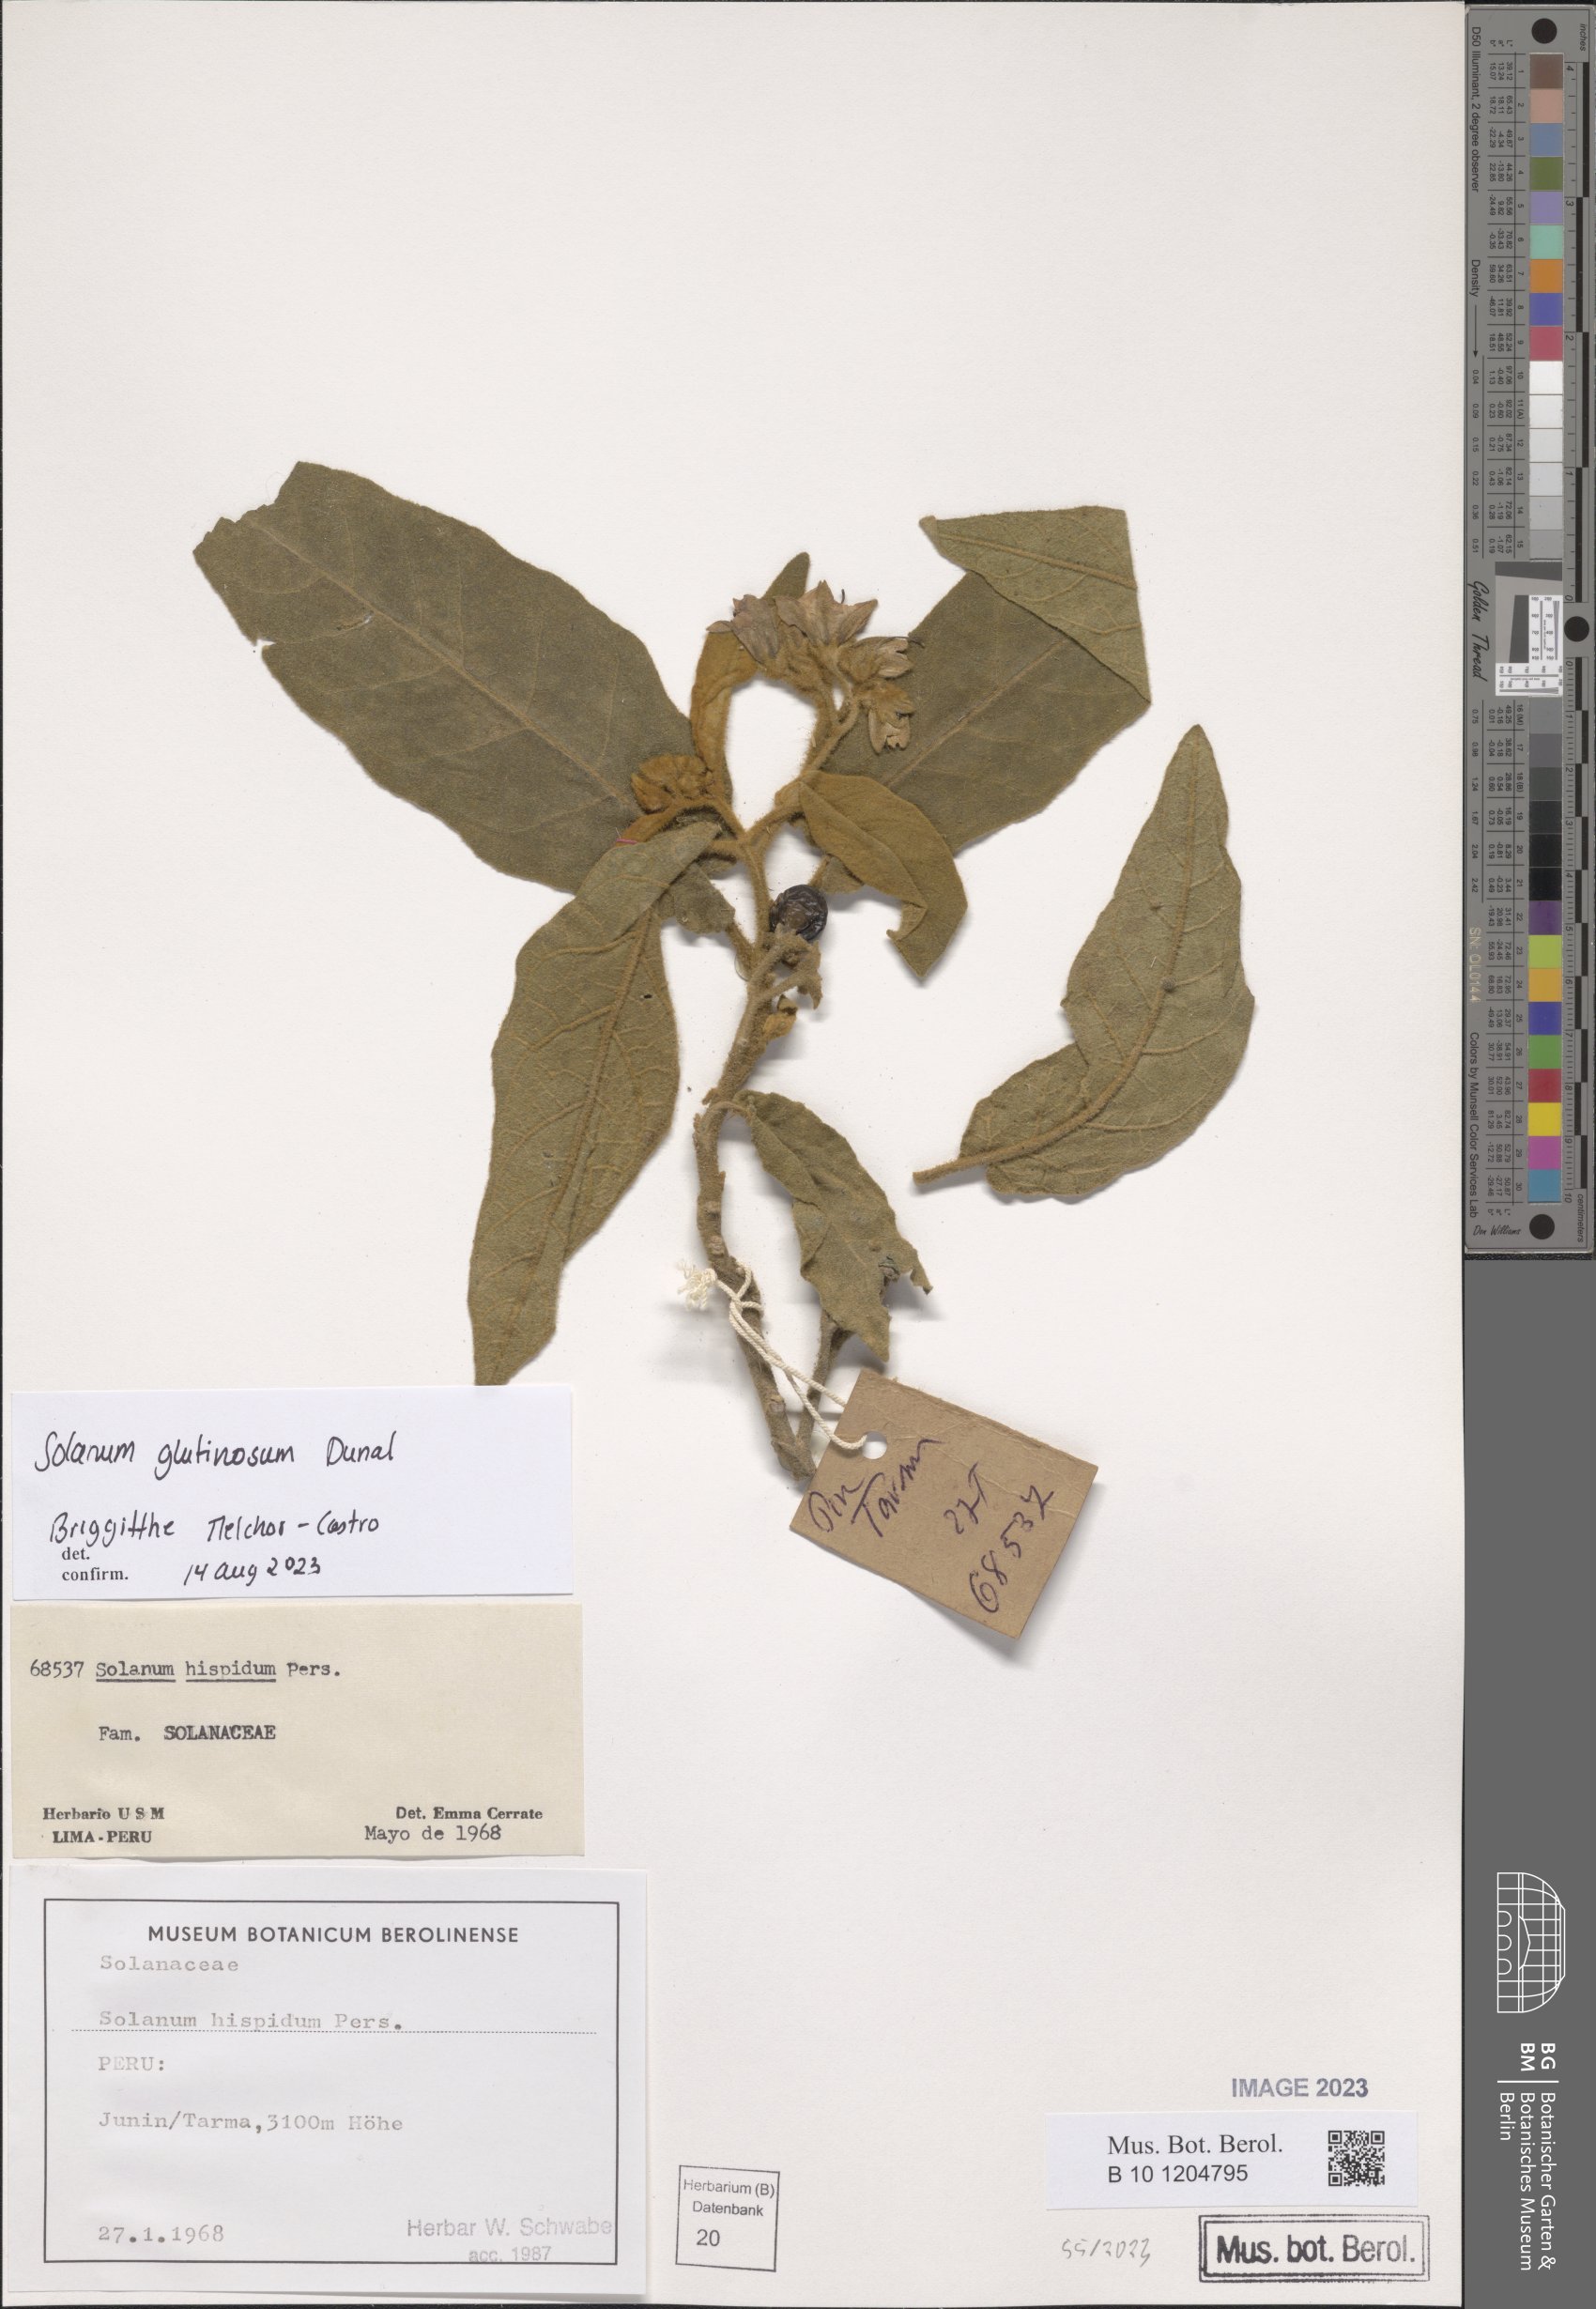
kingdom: Plantae
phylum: Tracheophyta
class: Magnoliopsida
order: Solanales
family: Solanaceae
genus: Solanum
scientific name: Solanum glutinosum
